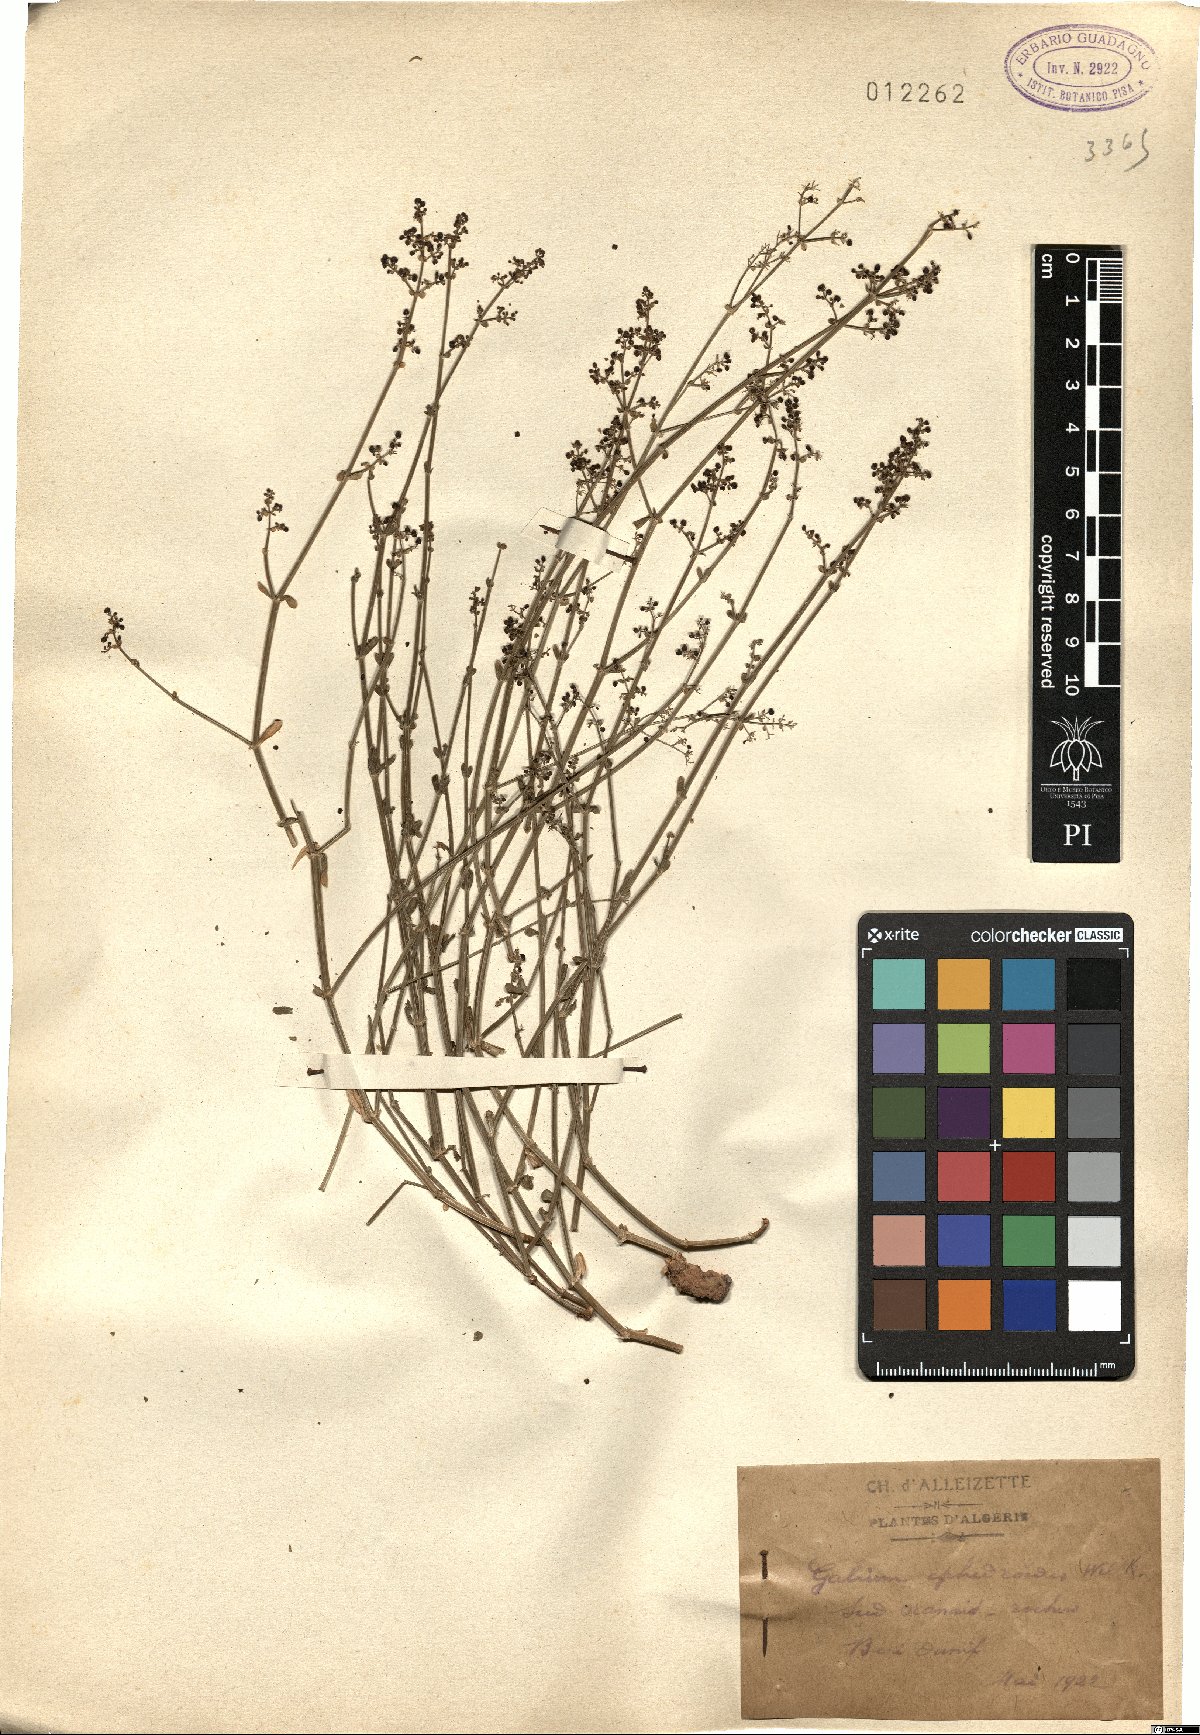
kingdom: Plantae
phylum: Tracheophyta
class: Magnoliopsida
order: Gentianales
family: Rubiaceae
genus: Galium
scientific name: Galium ephedroides
